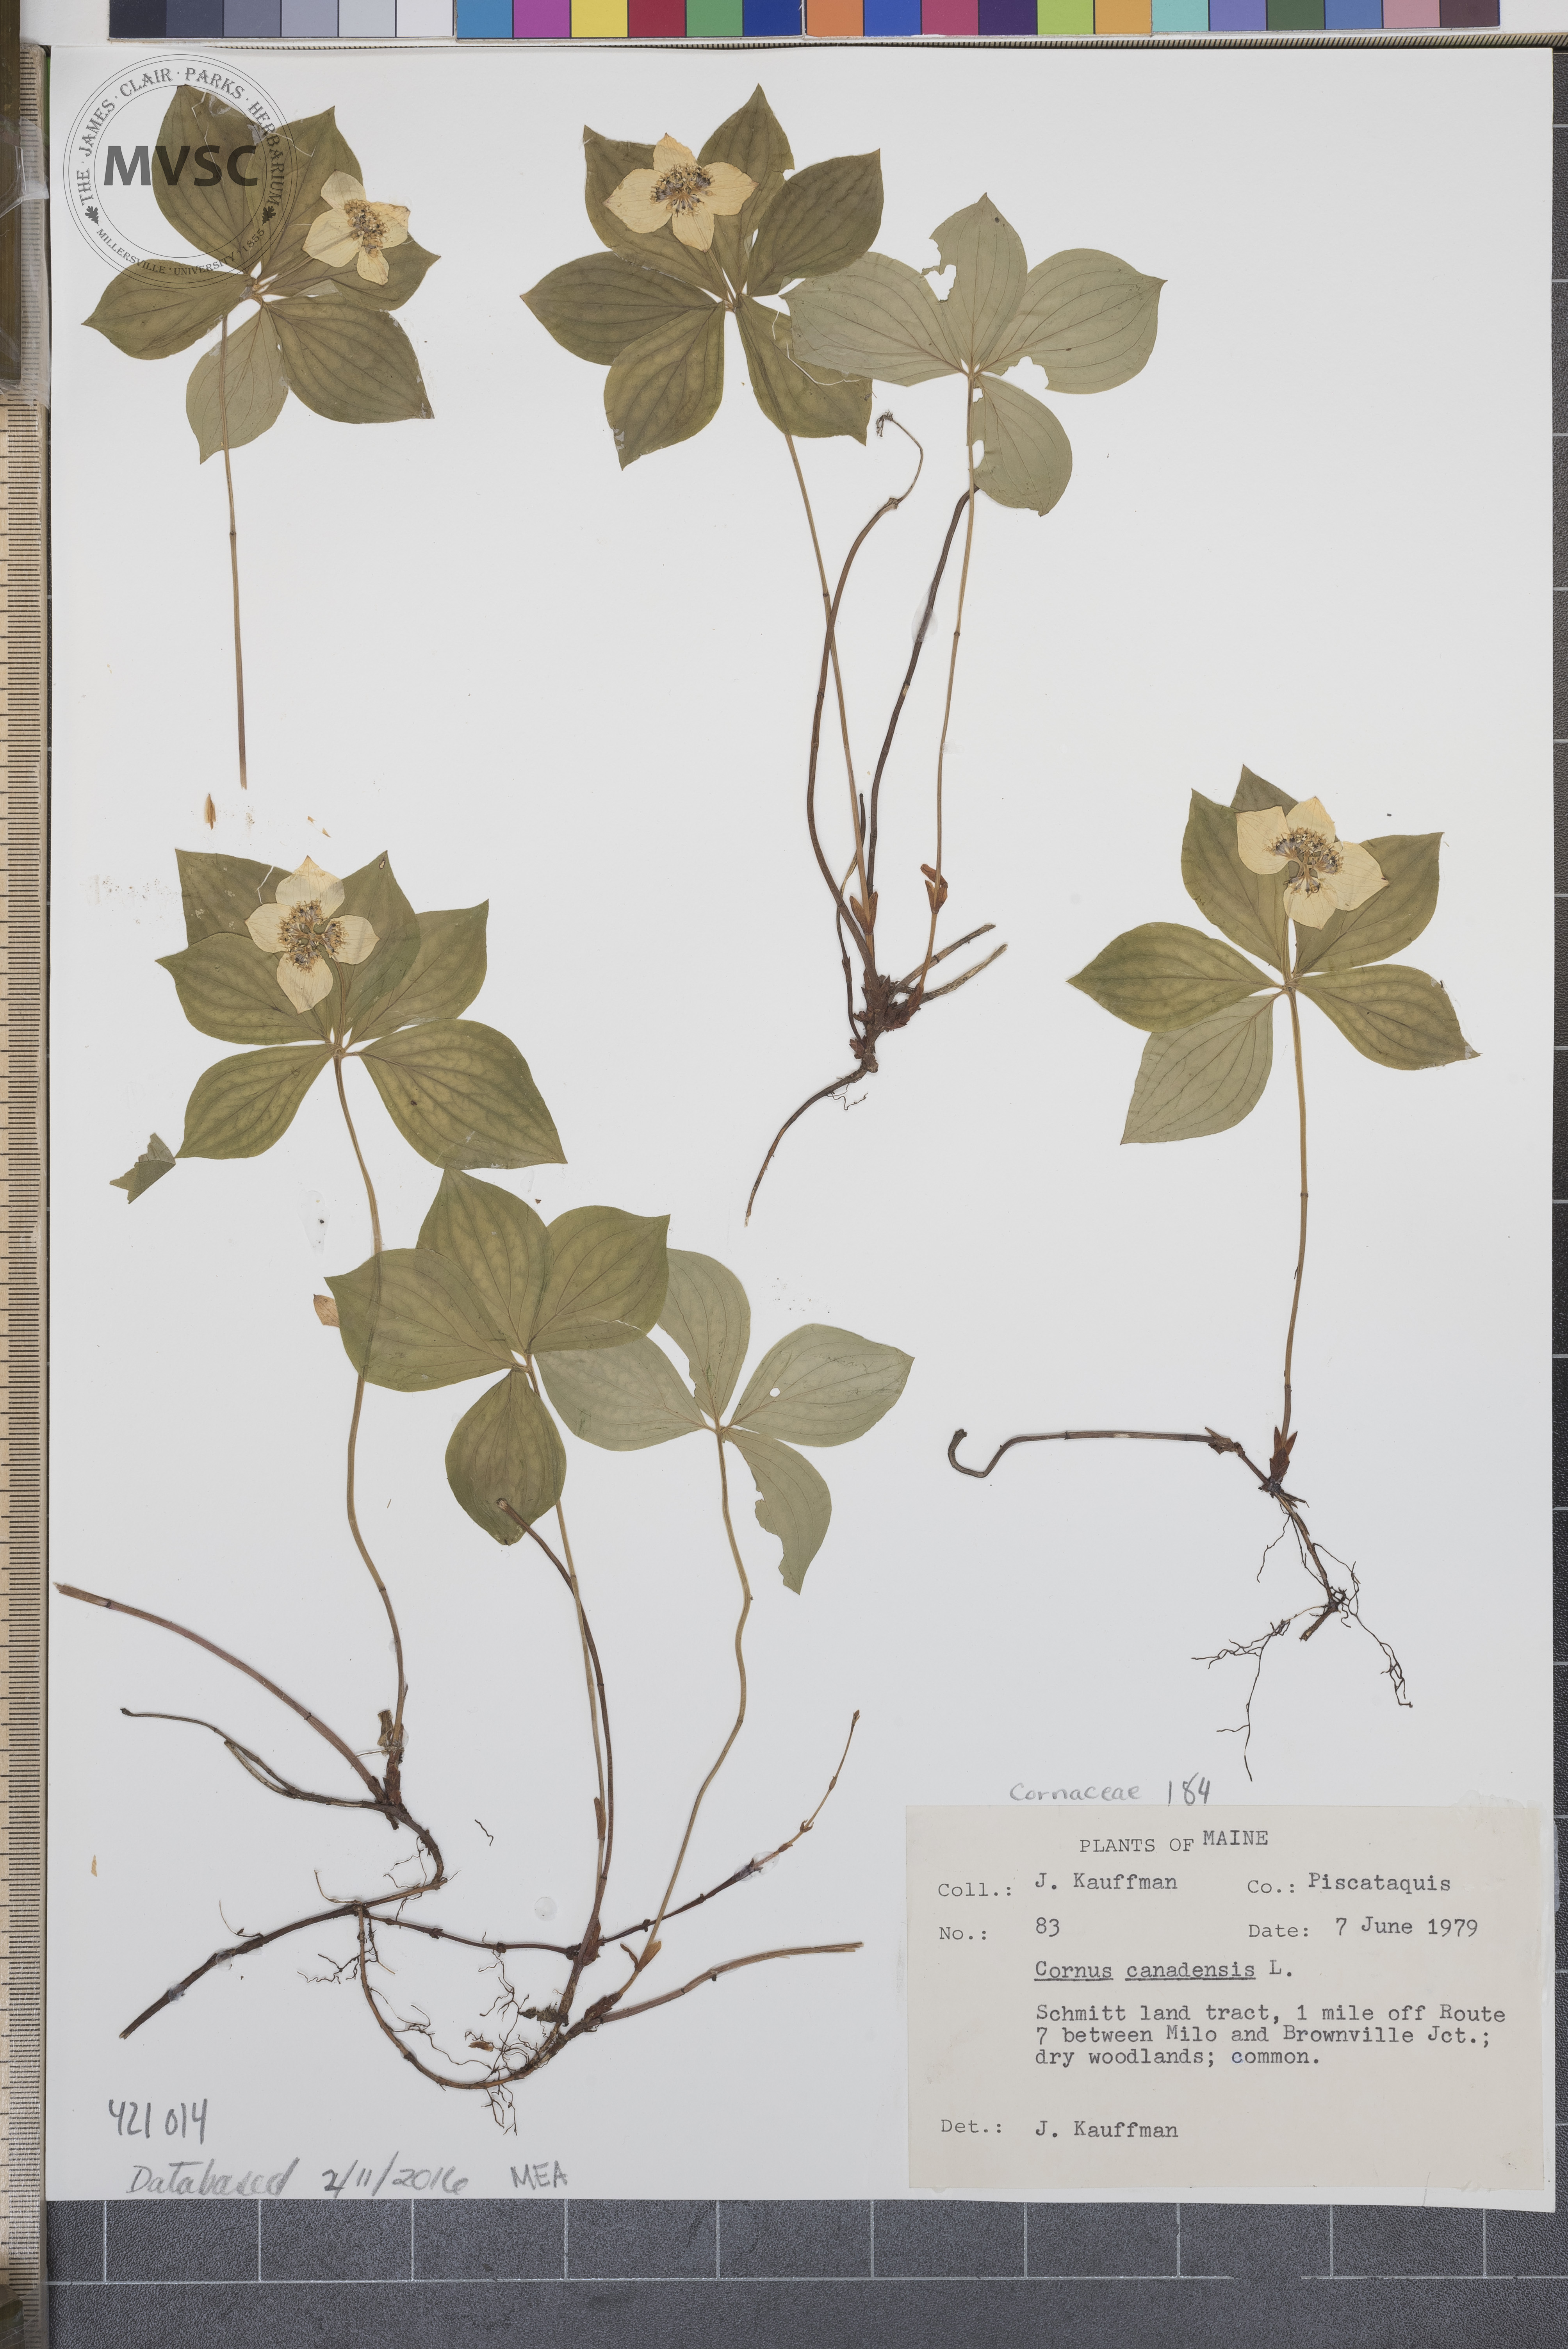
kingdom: Plantae
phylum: Tracheophyta
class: Magnoliopsida
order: Cornales
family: Cornaceae
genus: Cornus
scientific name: Cornus canadensis
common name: Creeping dogwood
